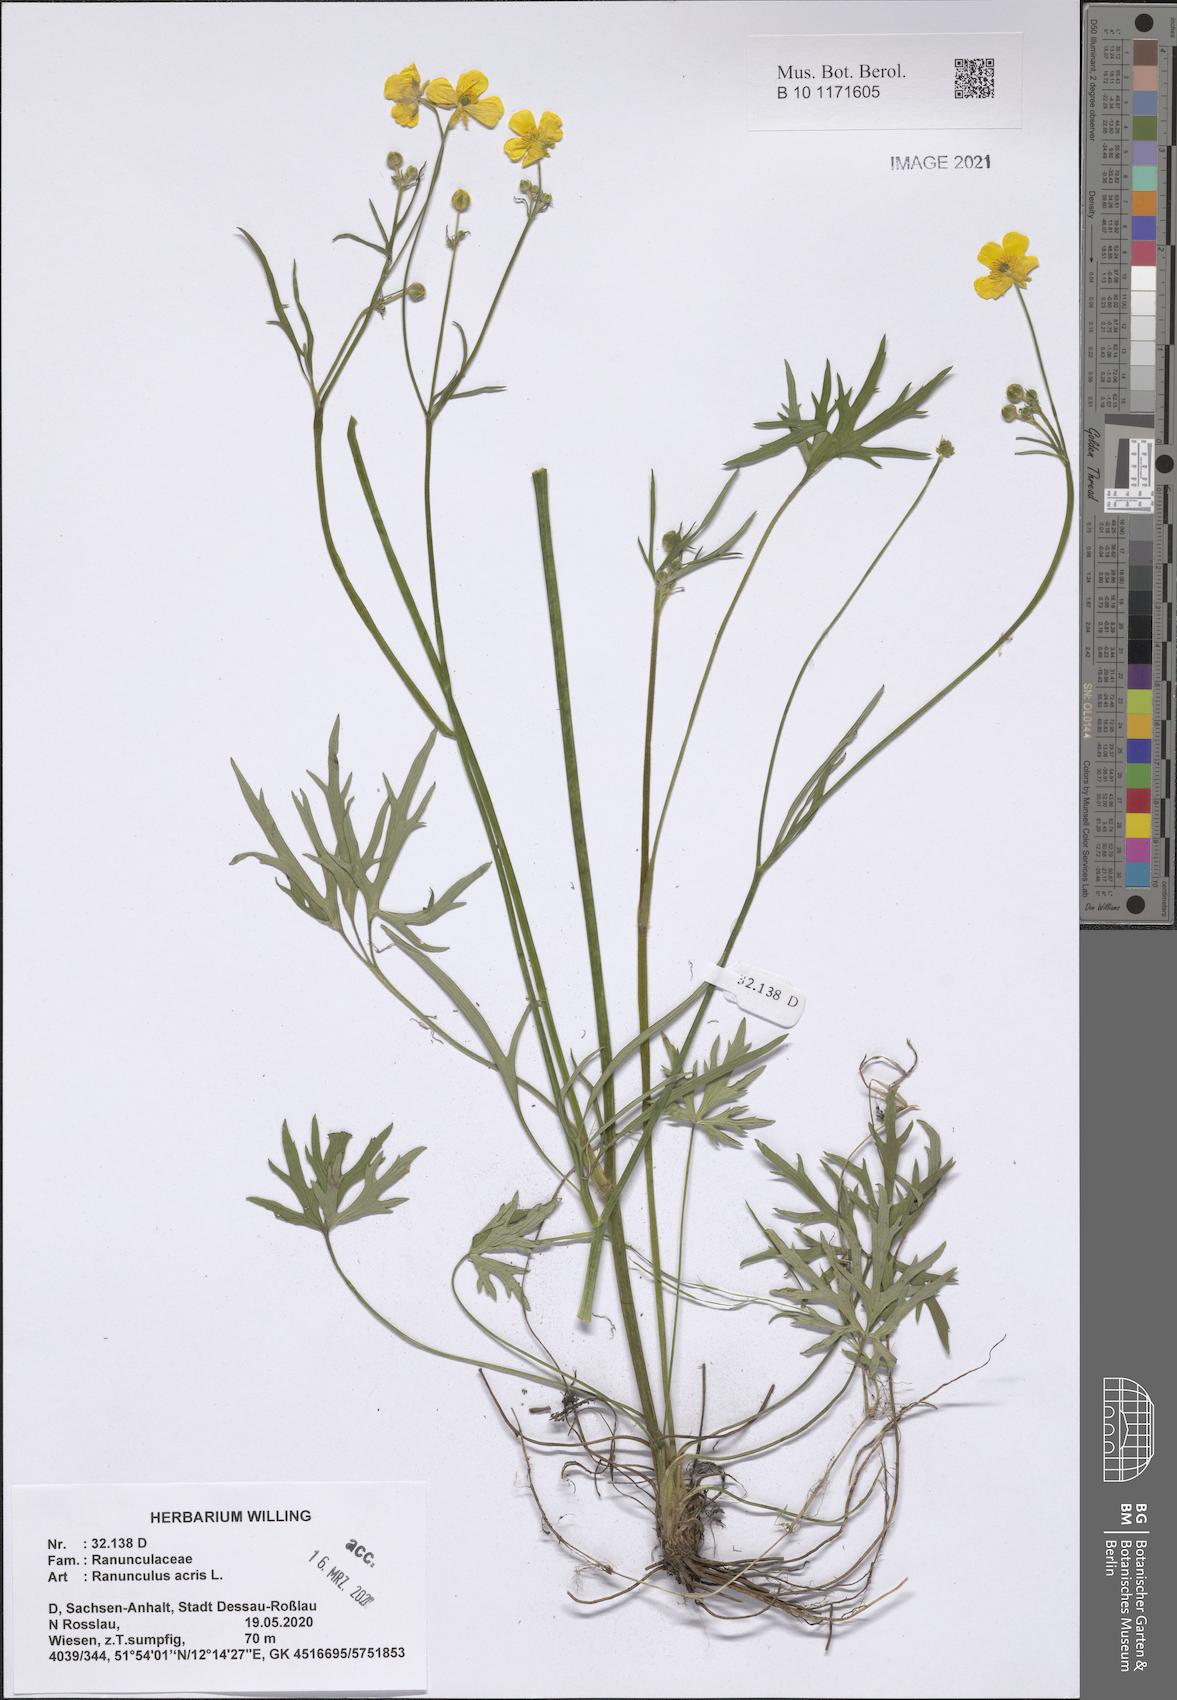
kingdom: Plantae
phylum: Tracheophyta
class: Magnoliopsida
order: Ranunculales
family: Ranunculaceae
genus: Ranunculus
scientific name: Ranunculus acris
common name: Meadow buttercup
